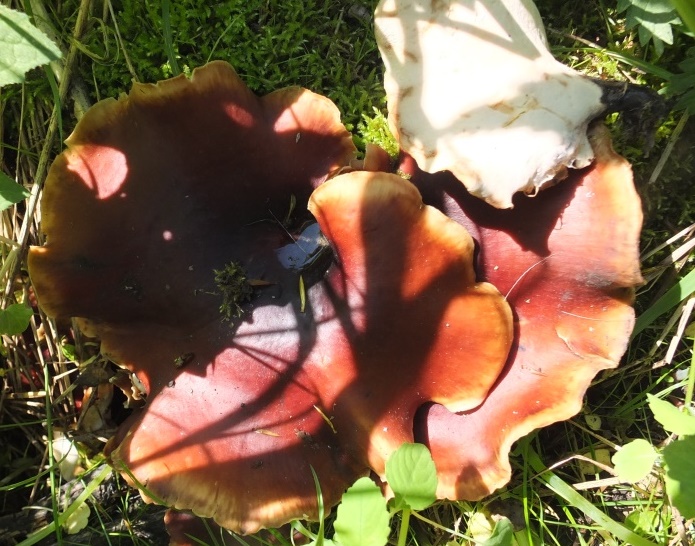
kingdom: Fungi
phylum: Basidiomycota
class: Agaricomycetes
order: Polyporales
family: Polyporaceae
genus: Picipes
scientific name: Picipes badius
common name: kastaniebrun stilkporesvamp
